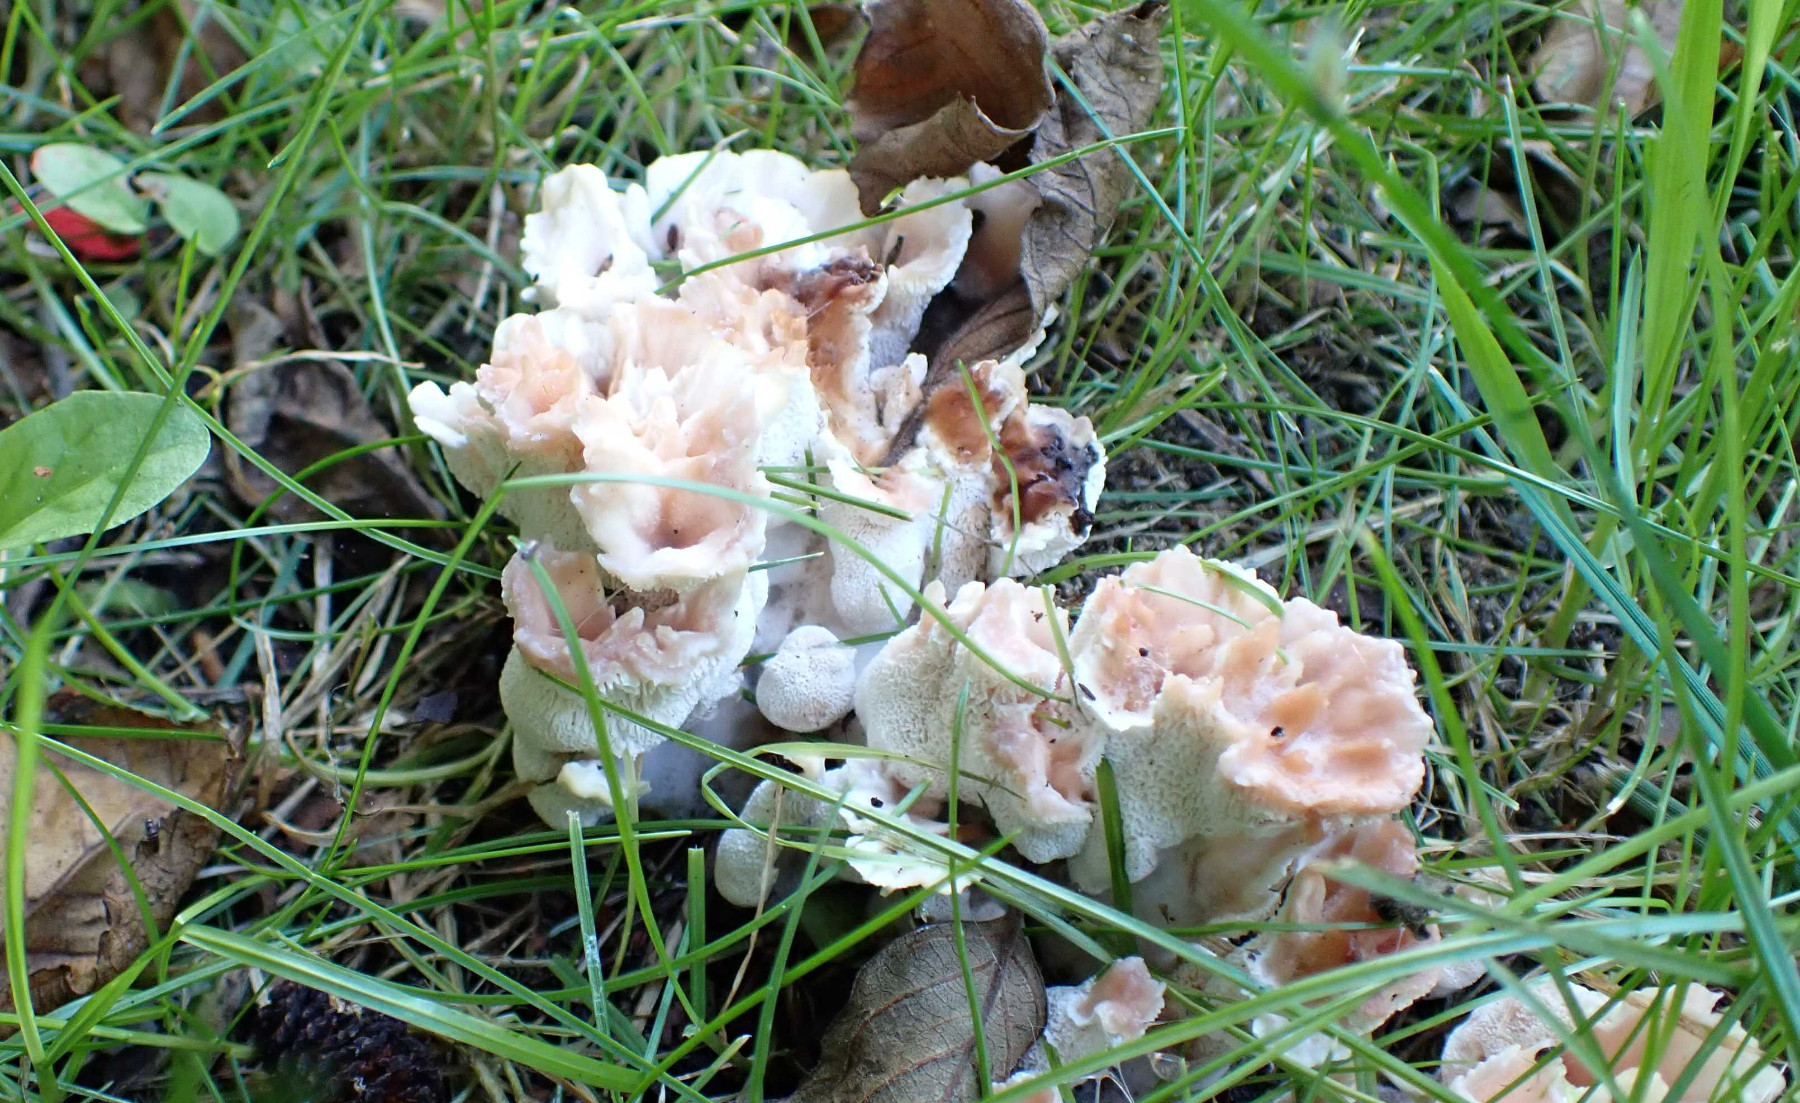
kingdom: Fungi
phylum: Basidiomycota
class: Agaricomycetes
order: Polyporales
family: Podoscyphaceae
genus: Abortiporus
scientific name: Abortiporus biennis
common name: rødmende pjalteporesvamp
